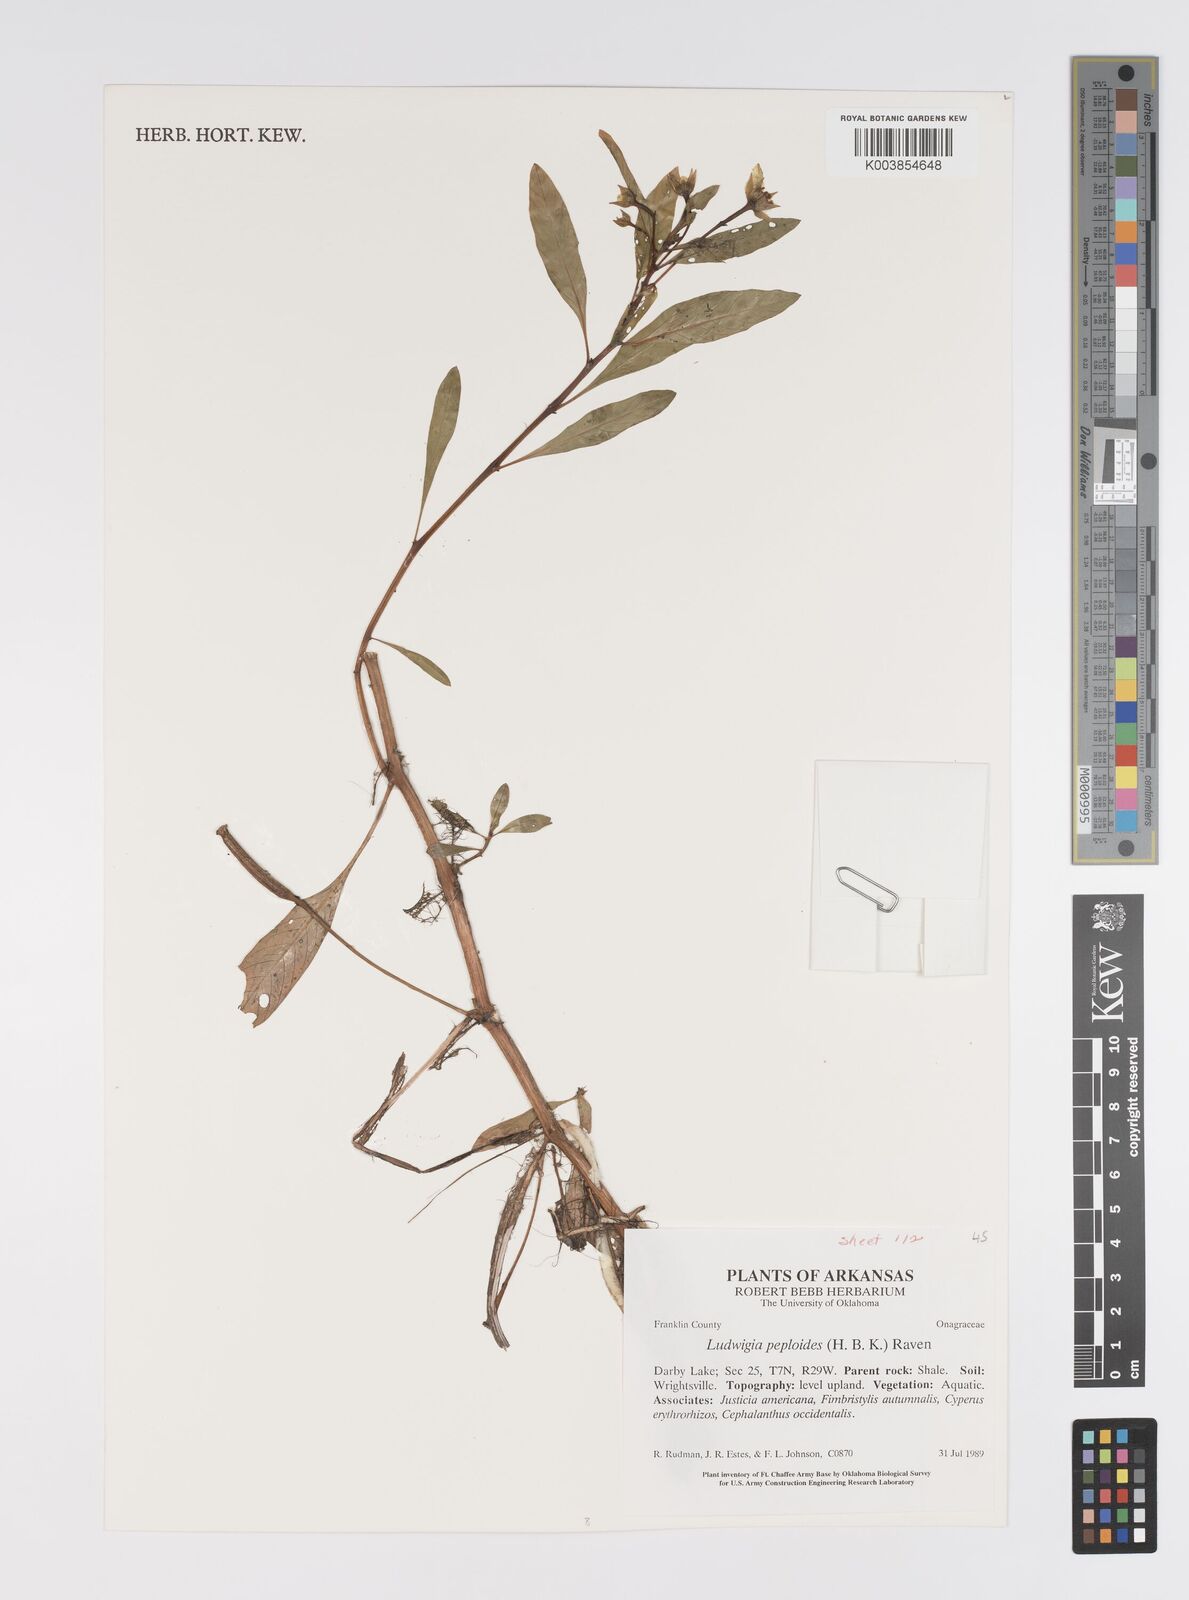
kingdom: Plantae
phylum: Tracheophyta
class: Magnoliopsida
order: Myrtales
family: Onagraceae
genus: Ludwigia
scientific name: Ludwigia peploides
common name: Floating primrose-willow
